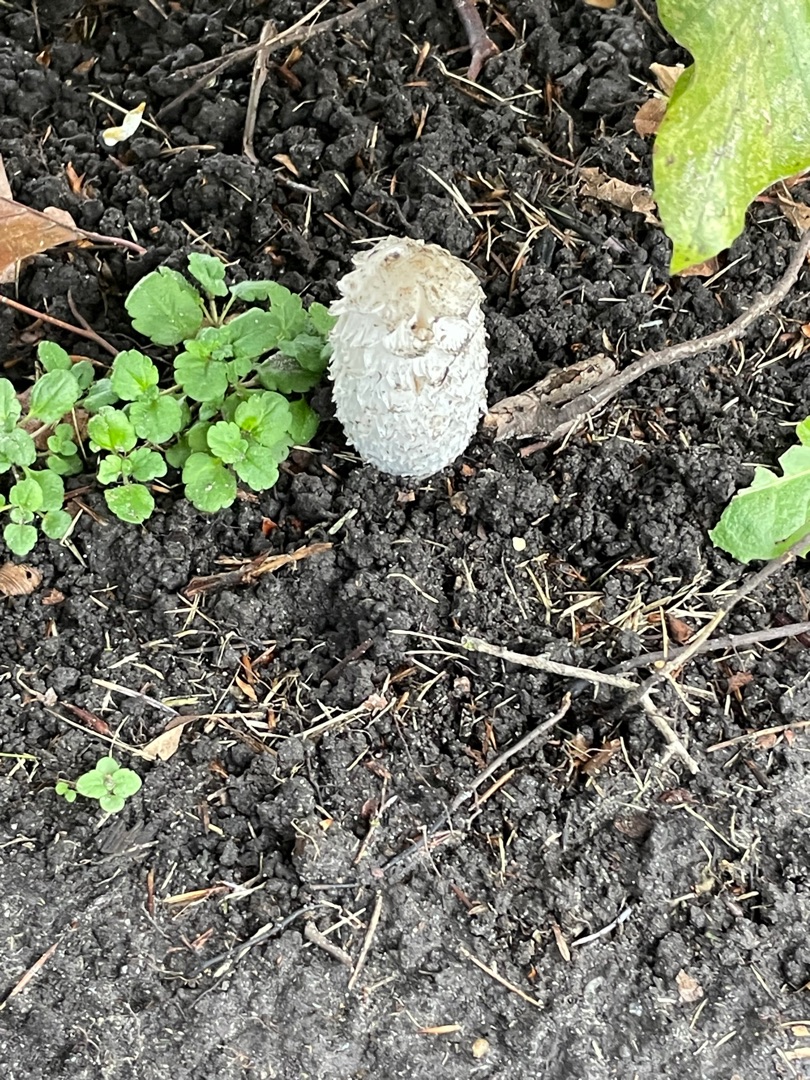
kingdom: Fungi
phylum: Basidiomycota
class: Agaricomycetes
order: Agaricales
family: Agaricaceae
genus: Coprinus
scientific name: Coprinus comatus
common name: Stor parykhat
